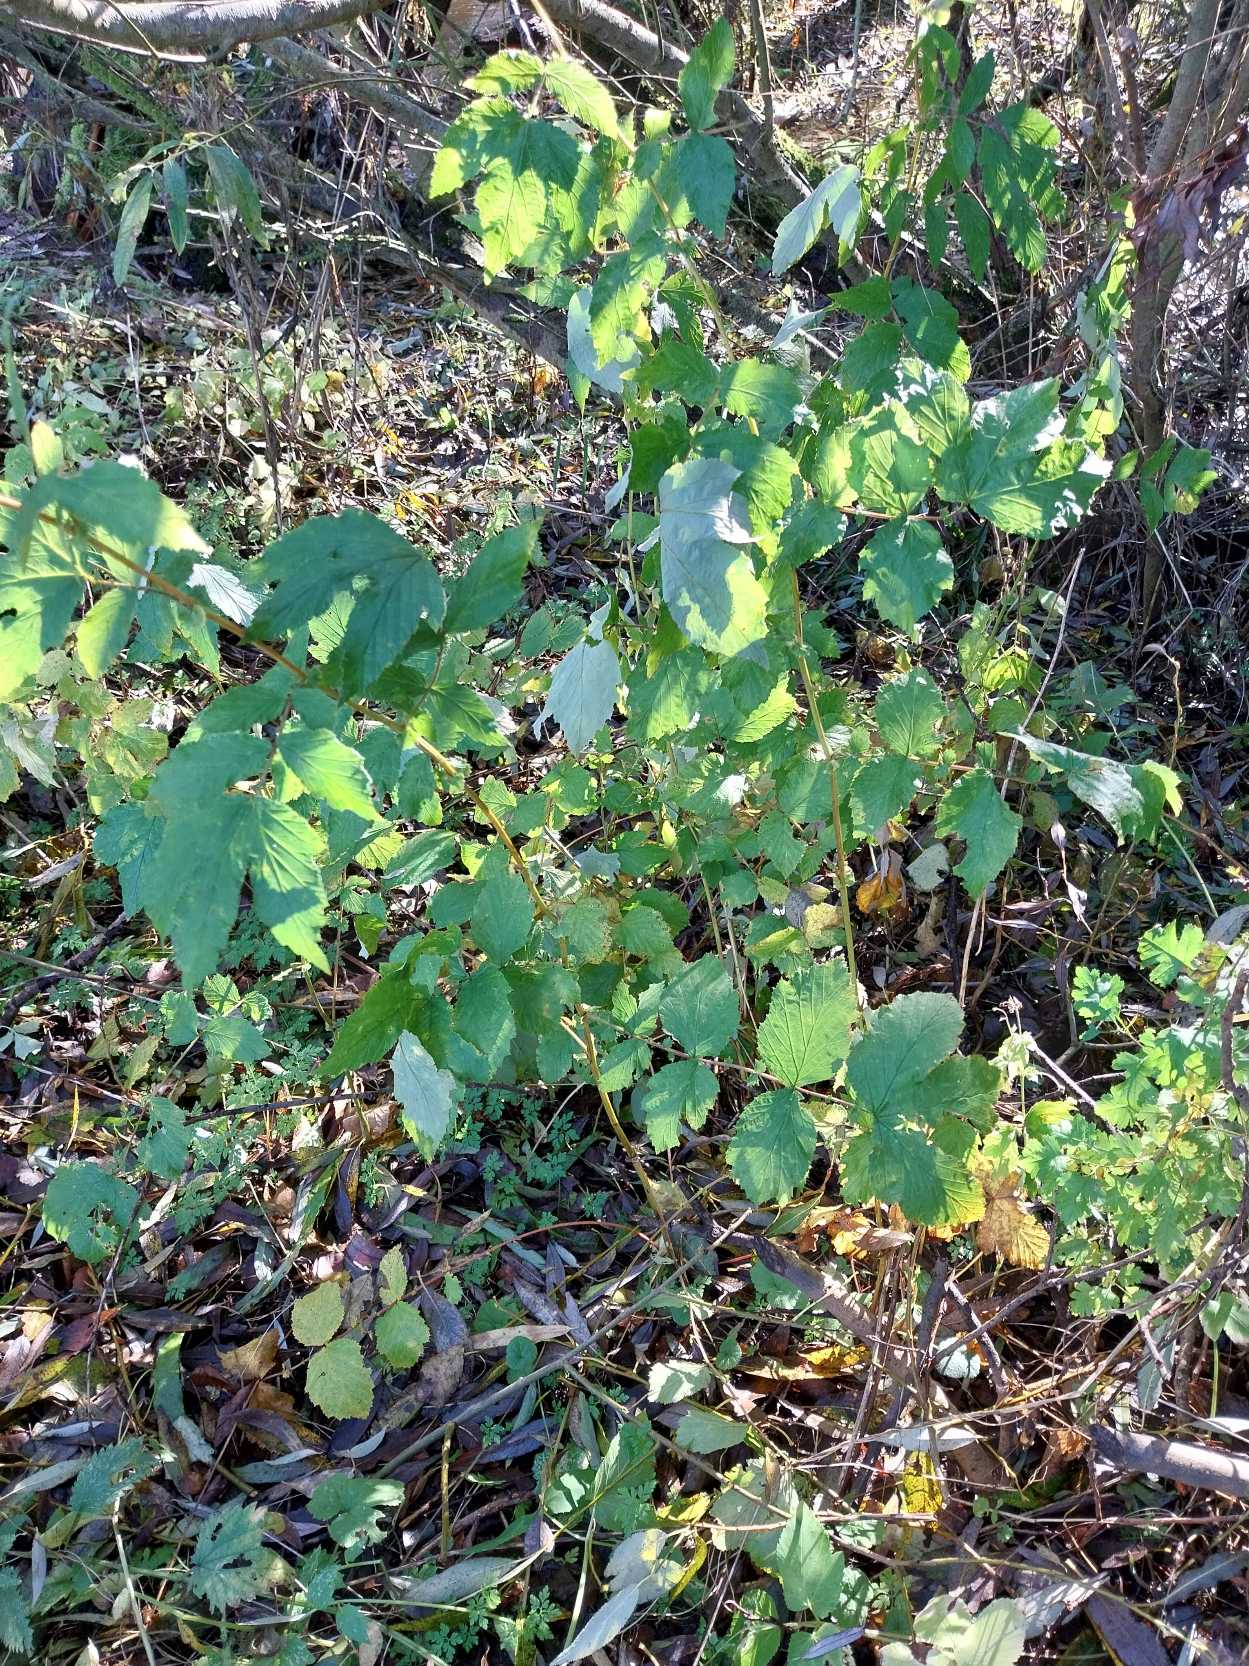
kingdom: Plantae
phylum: Tracheophyta
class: Magnoliopsida
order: Rosales
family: Rosaceae
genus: Filipendula
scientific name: Filipendula ulmaria
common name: Almindelig mjødurt
